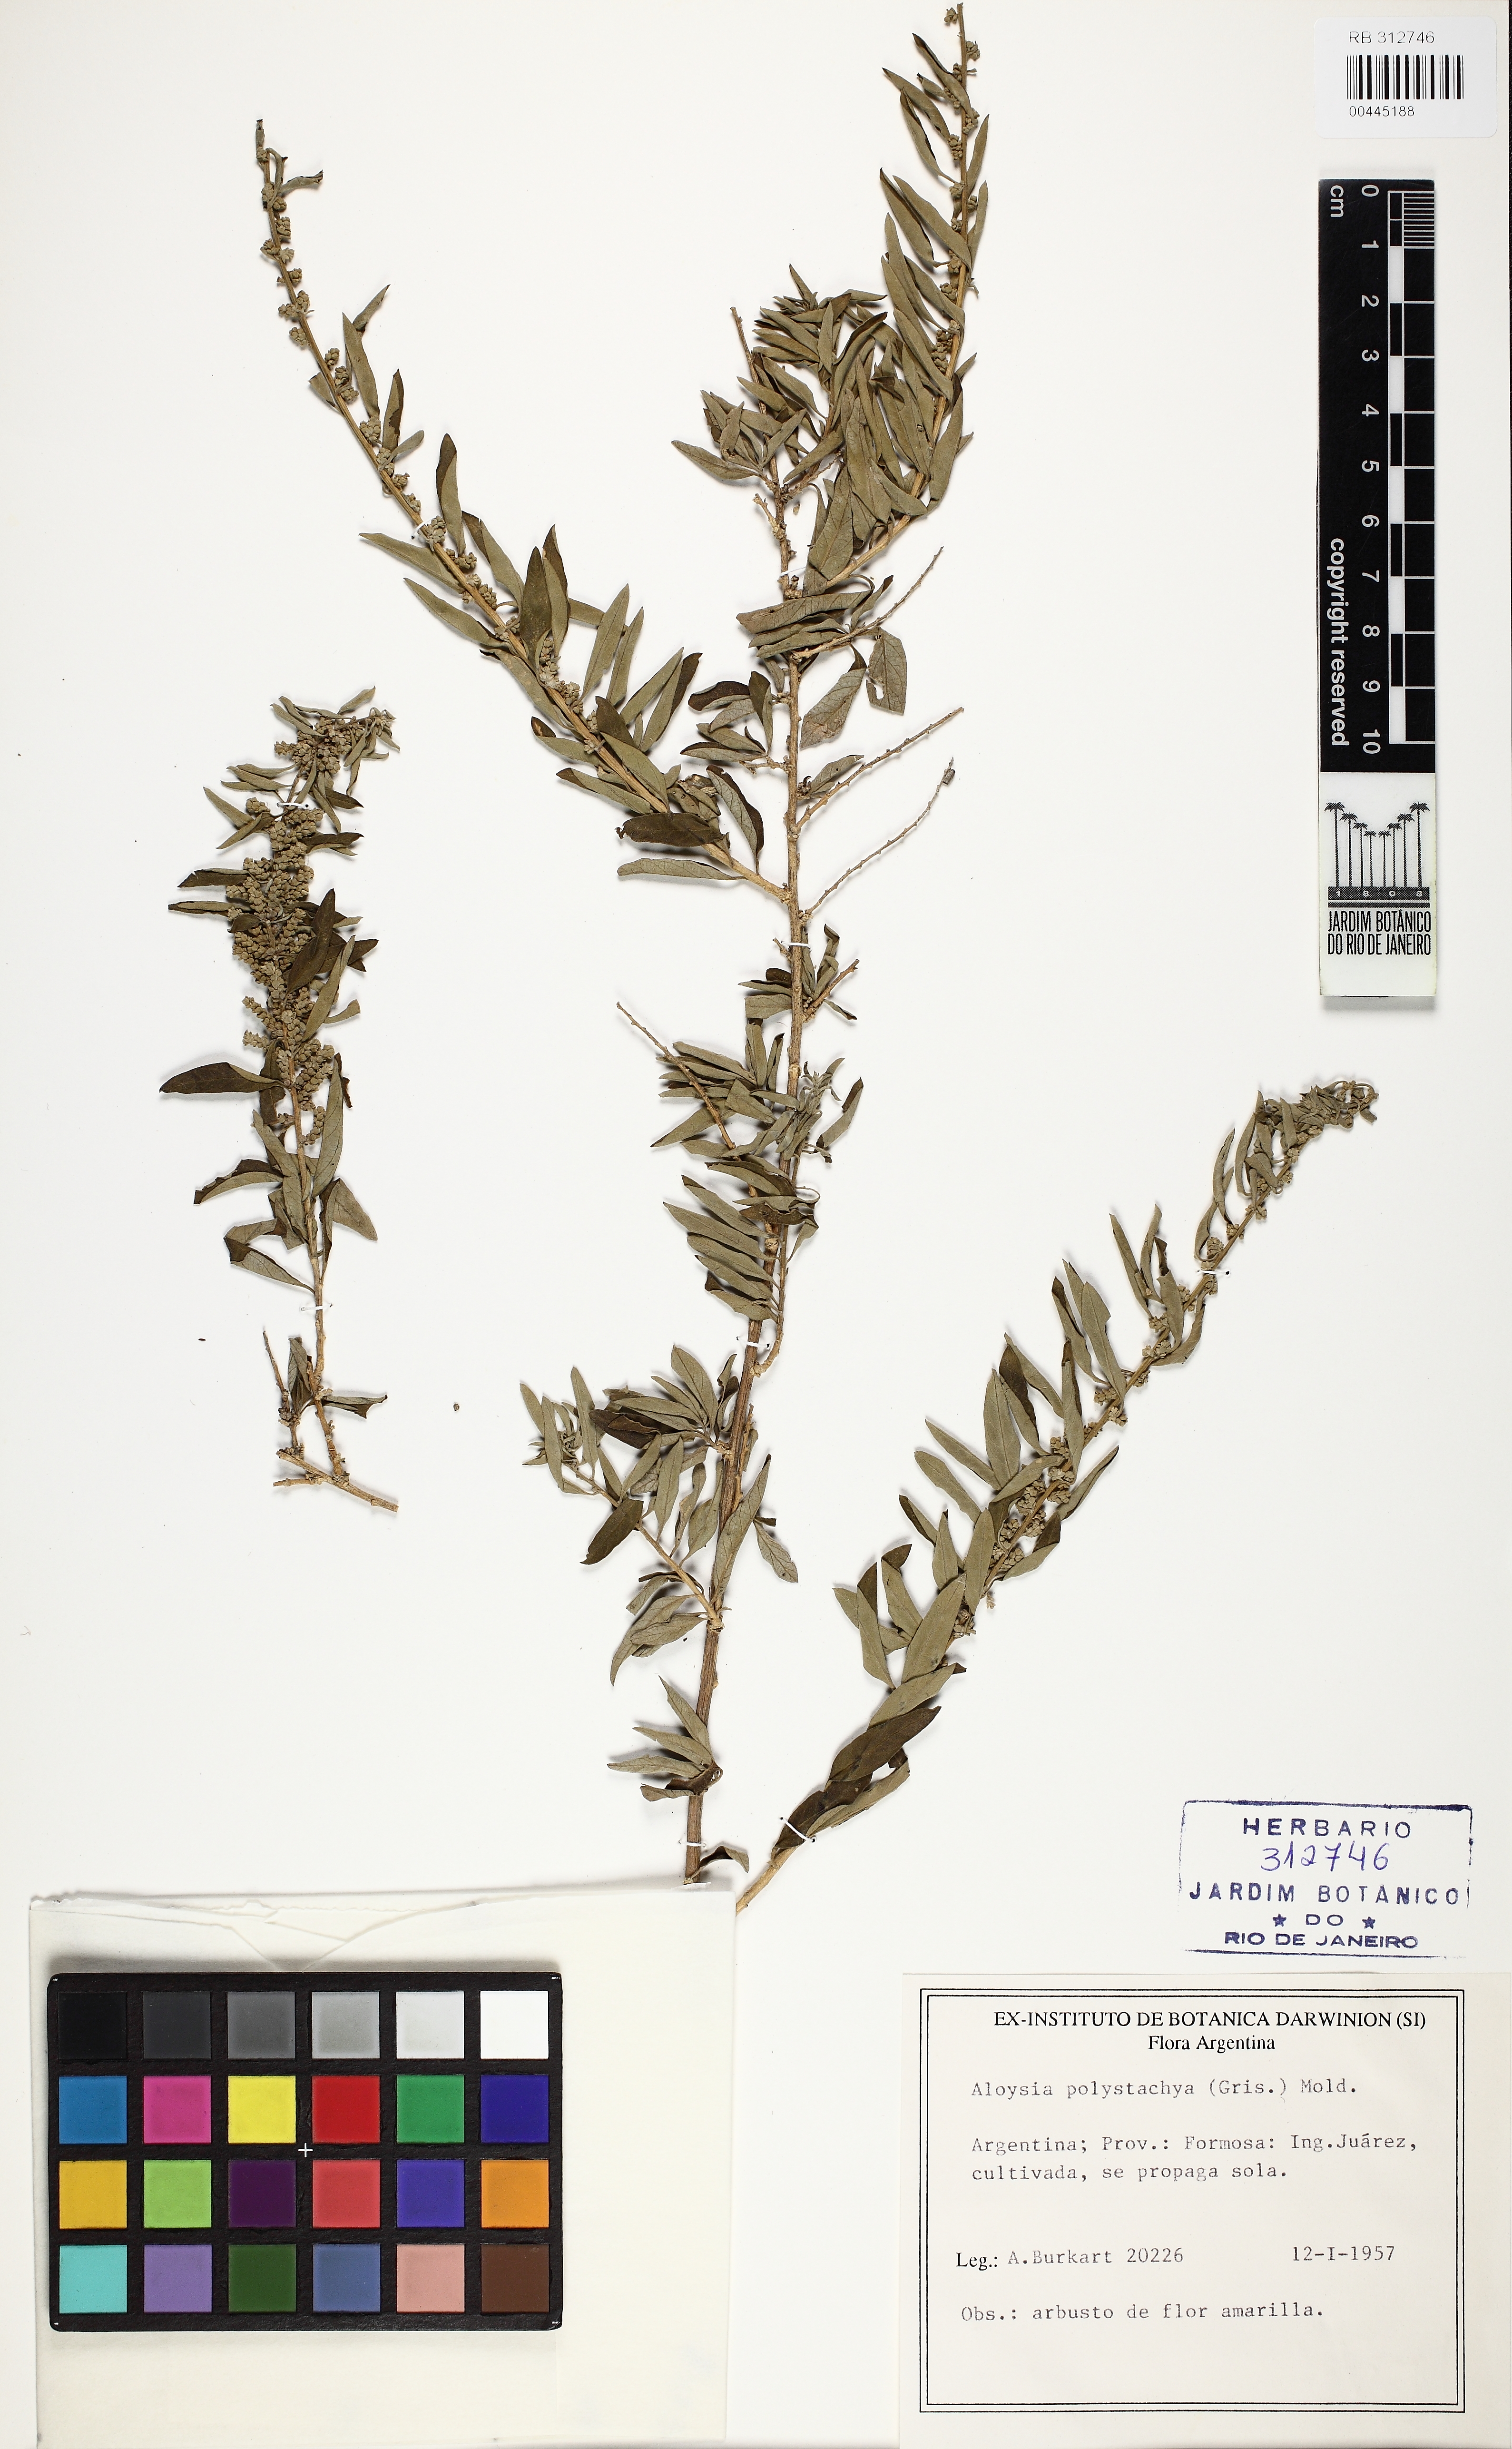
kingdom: Plantae
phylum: Tracheophyta
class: Magnoliopsida
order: Lamiales
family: Verbenaceae
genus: Aloysia
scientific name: Aloysia polystachya
